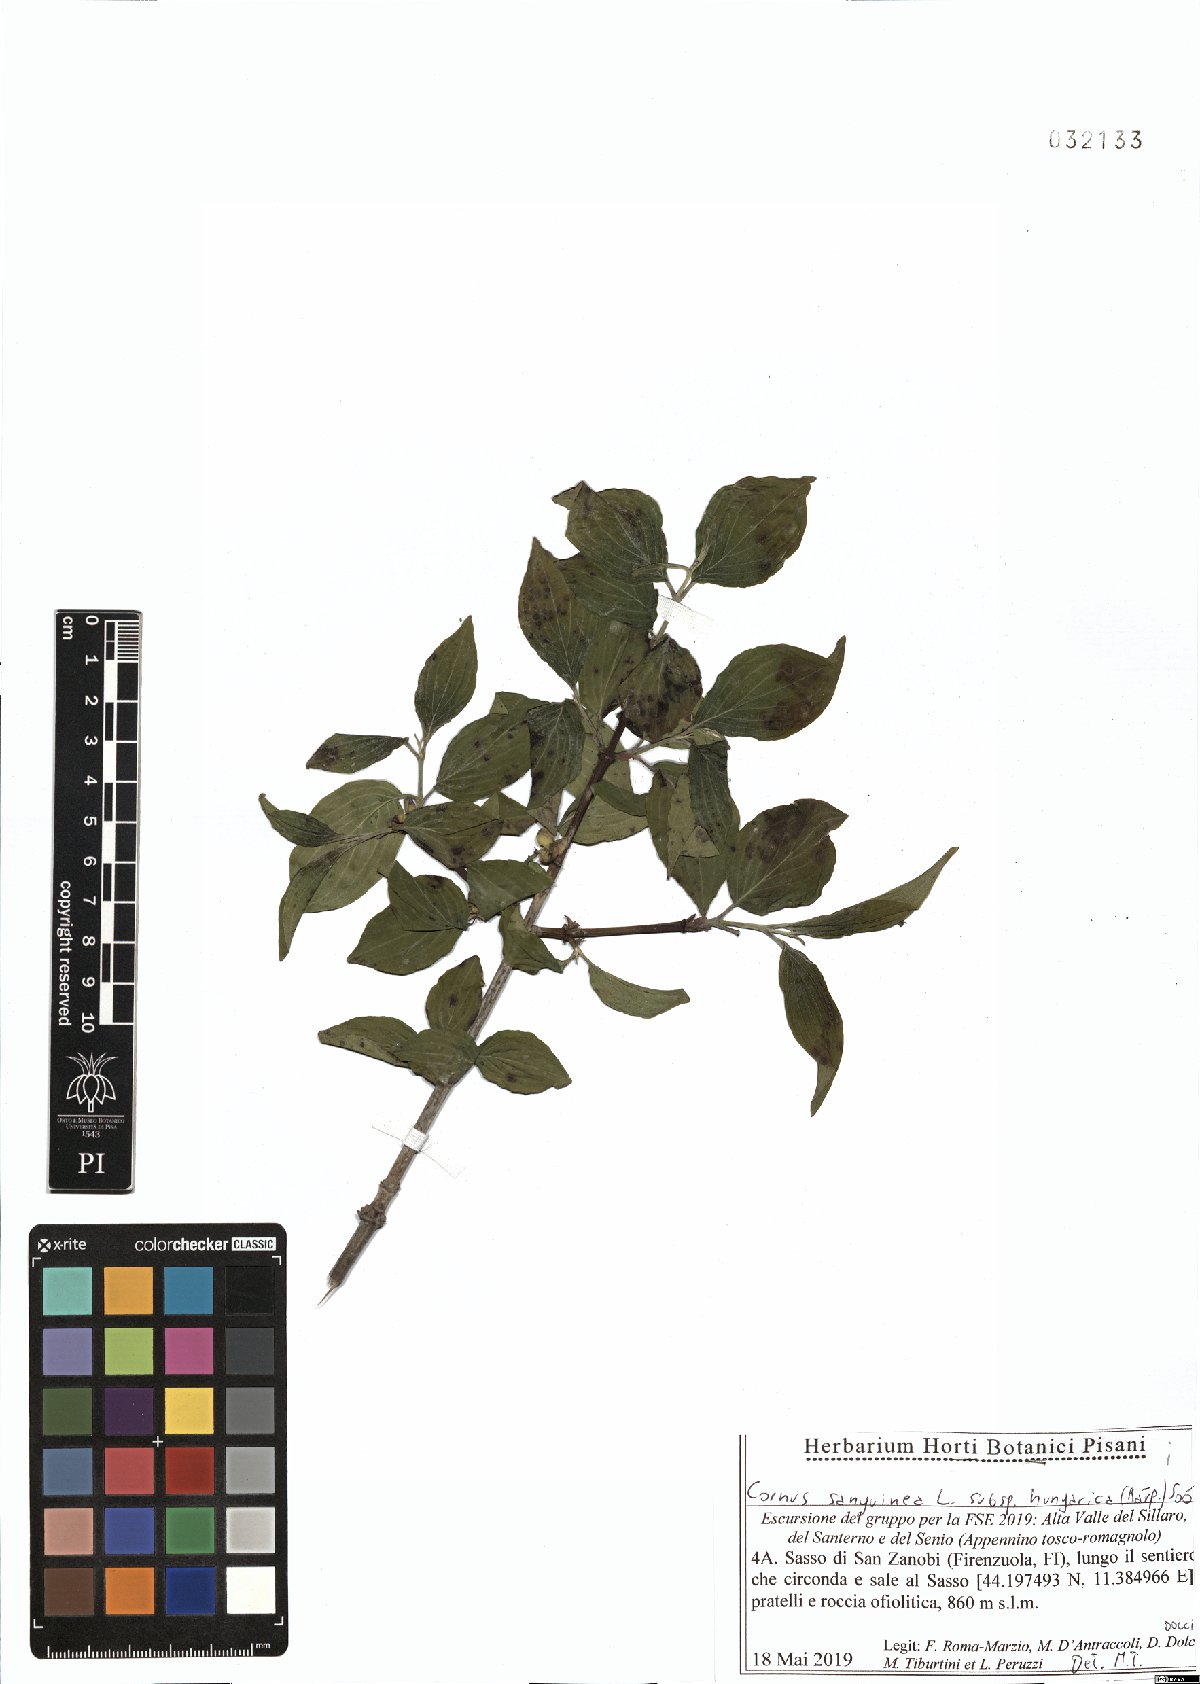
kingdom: Plantae
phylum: Tracheophyta
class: Magnoliopsida
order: Cornales
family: Cornaceae
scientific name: Cornaceae
